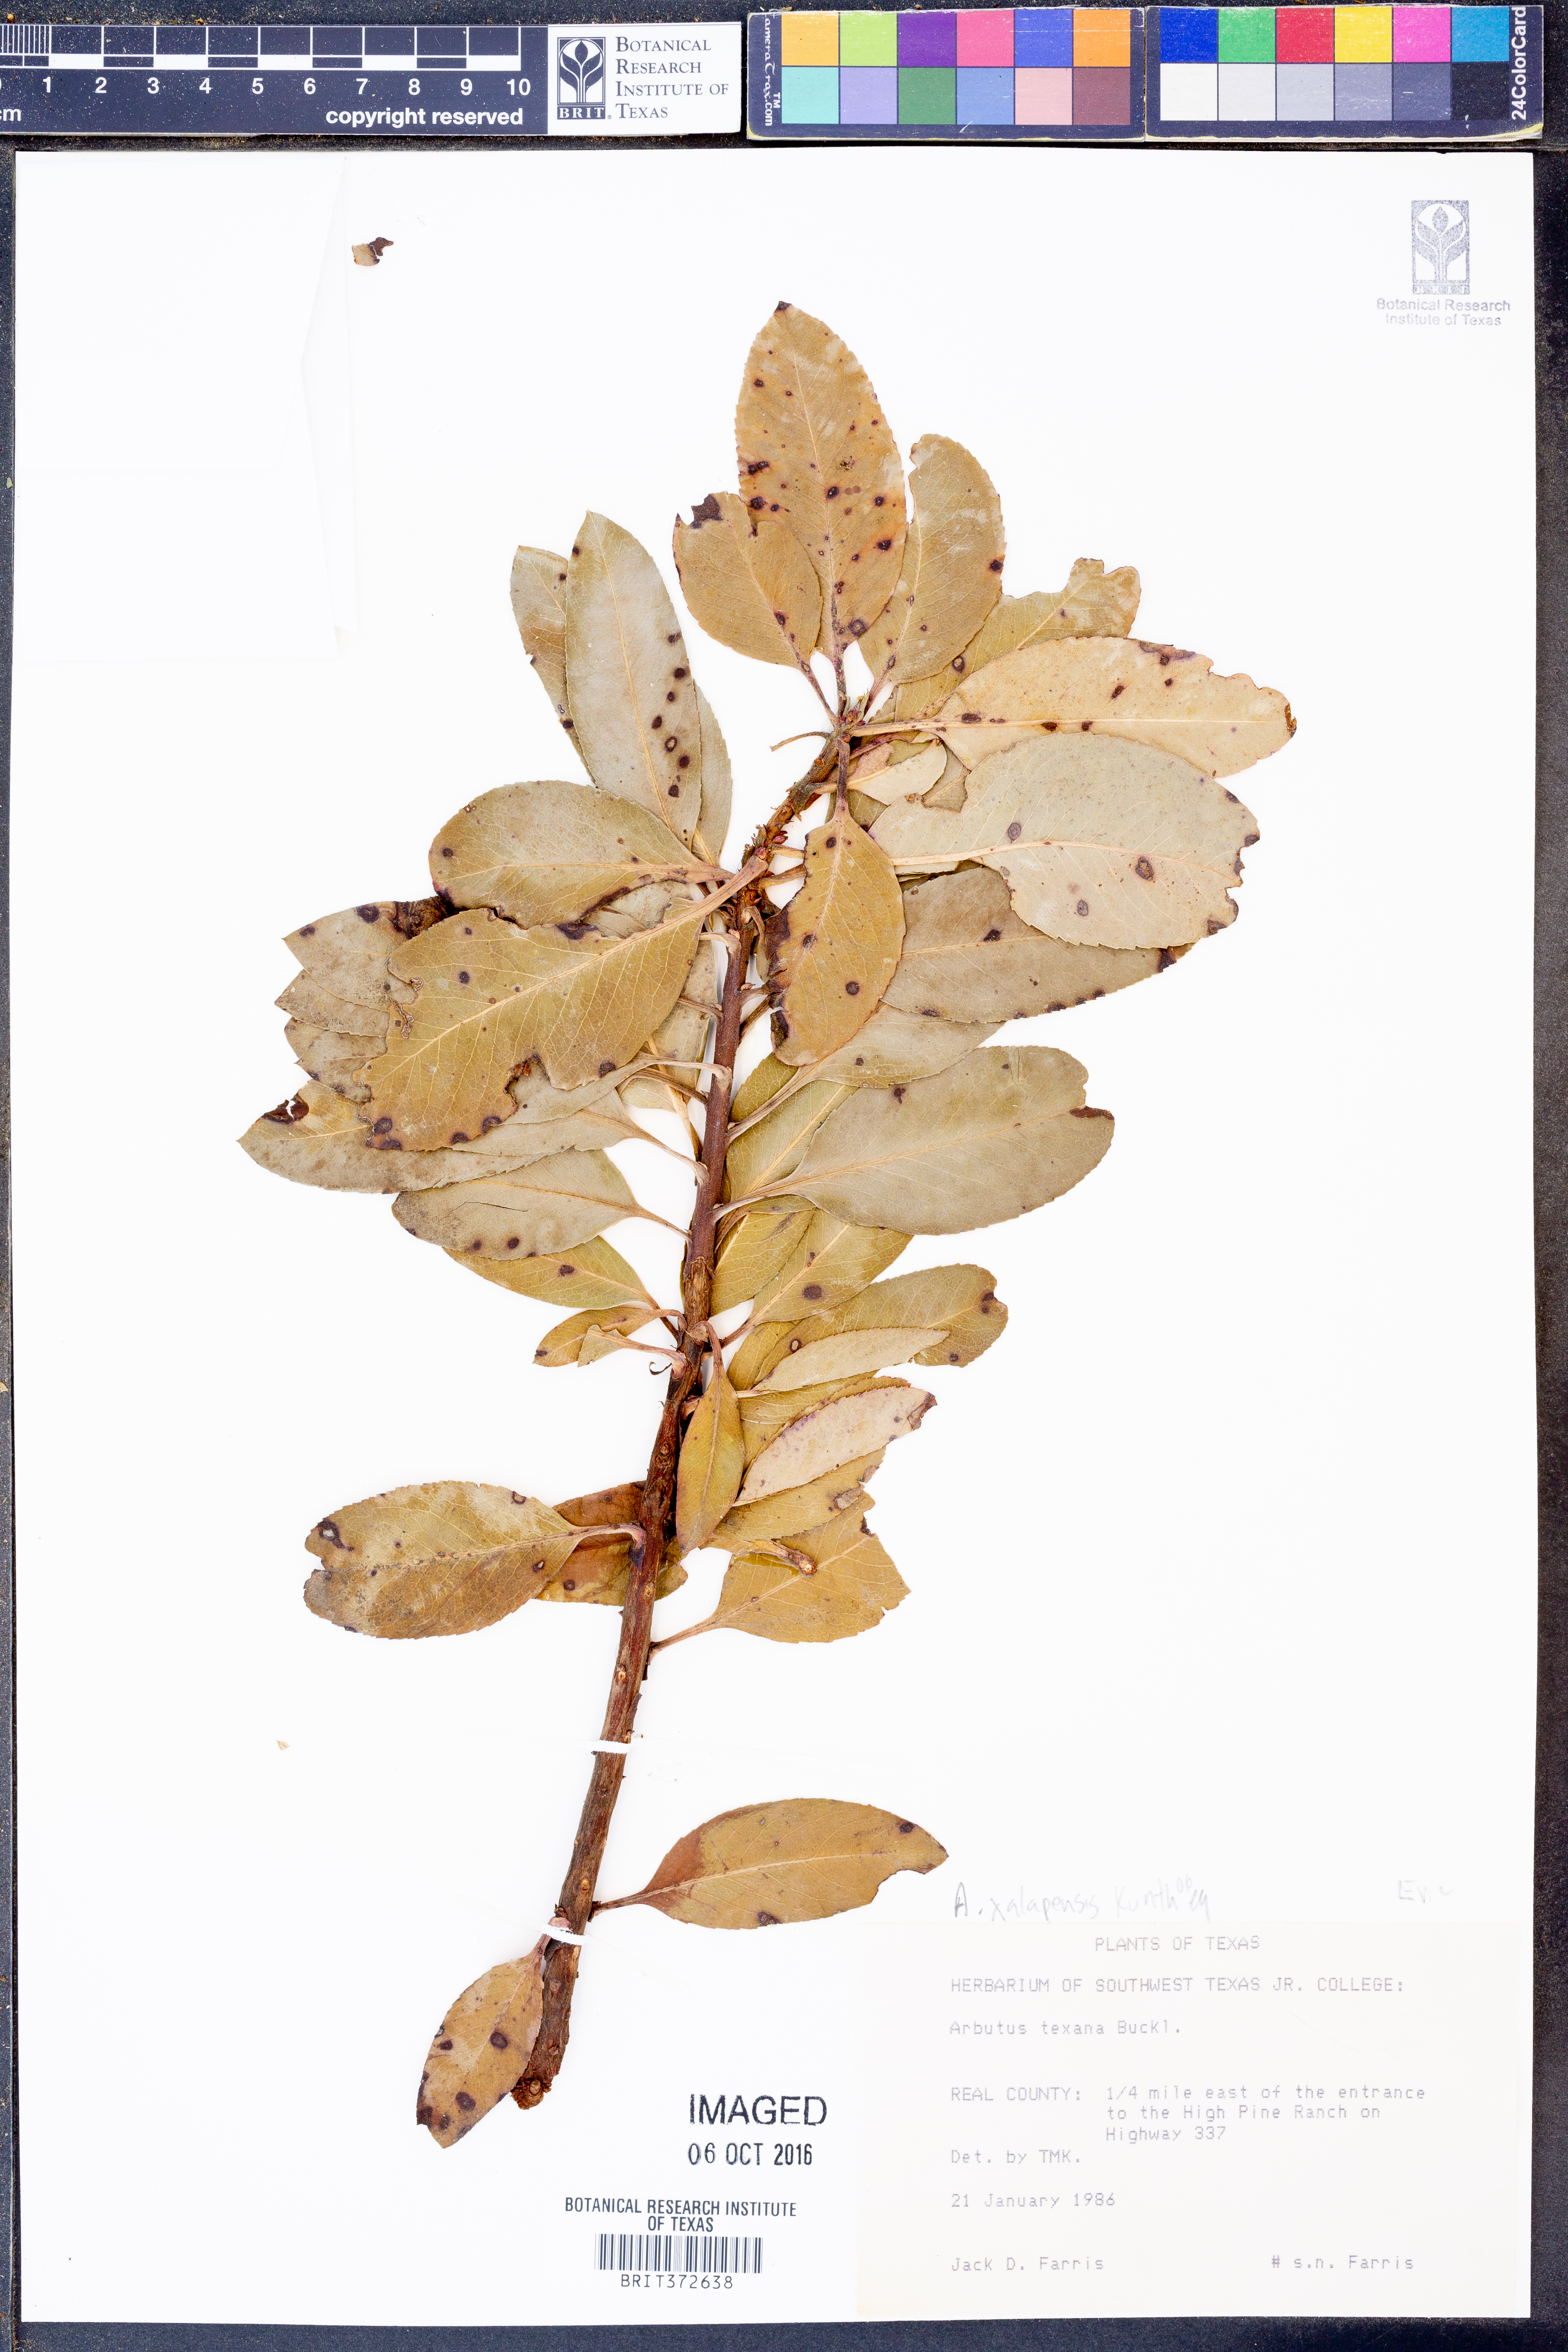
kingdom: Plantae
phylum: Tracheophyta
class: Magnoliopsida
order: Ericales
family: Ericaceae
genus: Arbutus
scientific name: Arbutus xalapensis
